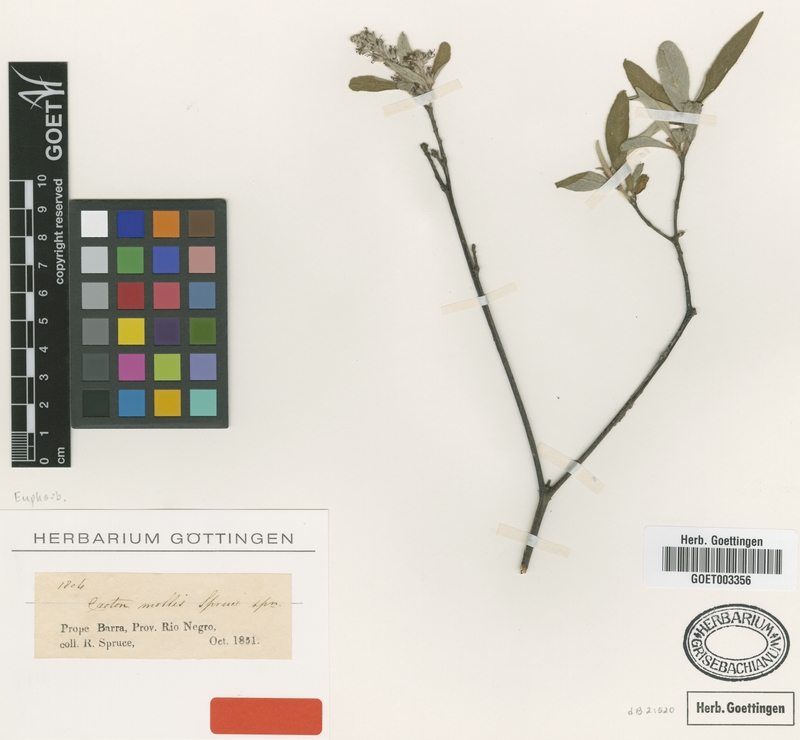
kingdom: Plantae
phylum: Tracheophyta
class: Magnoliopsida
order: Malpighiales
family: Euphorbiaceae
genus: Croton
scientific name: Croton mollis
